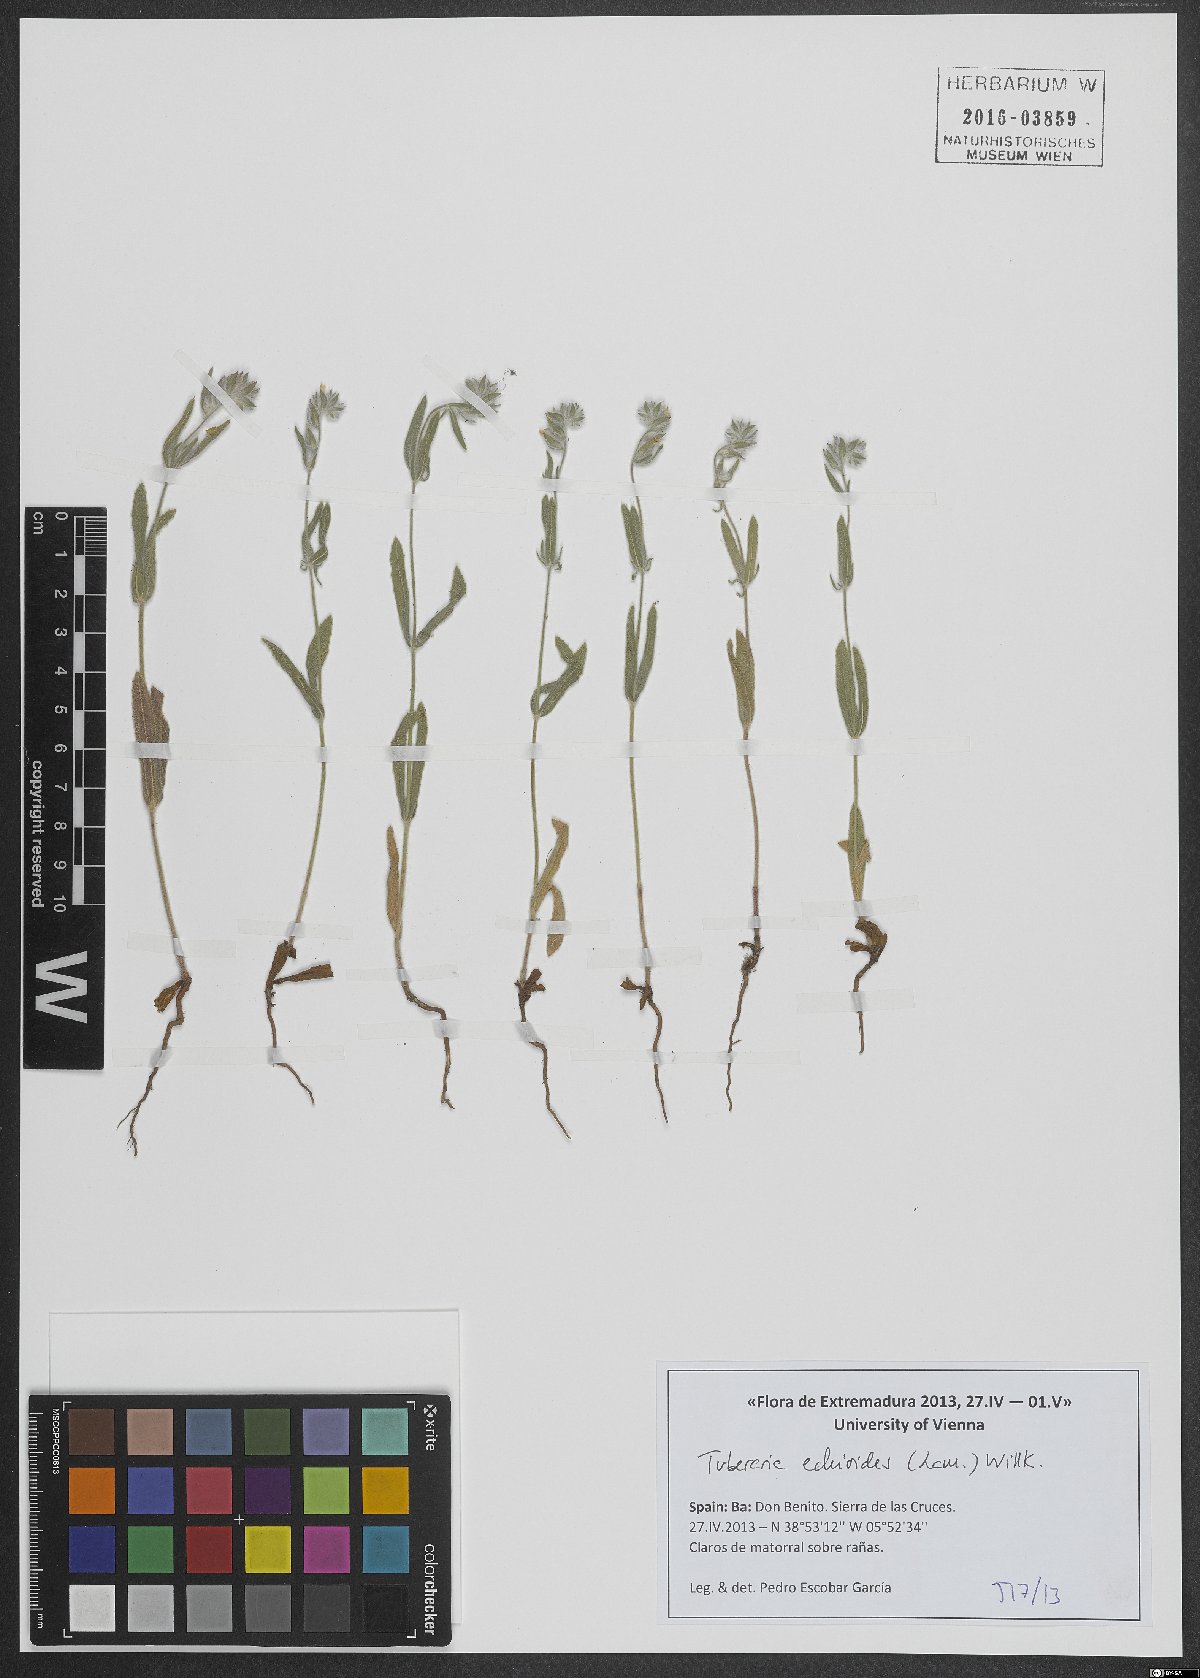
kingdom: Plantae
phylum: Tracheophyta
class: Magnoliopsida
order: Malvales
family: Cistaceae
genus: Tuberaria
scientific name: Tuberaria echioides
